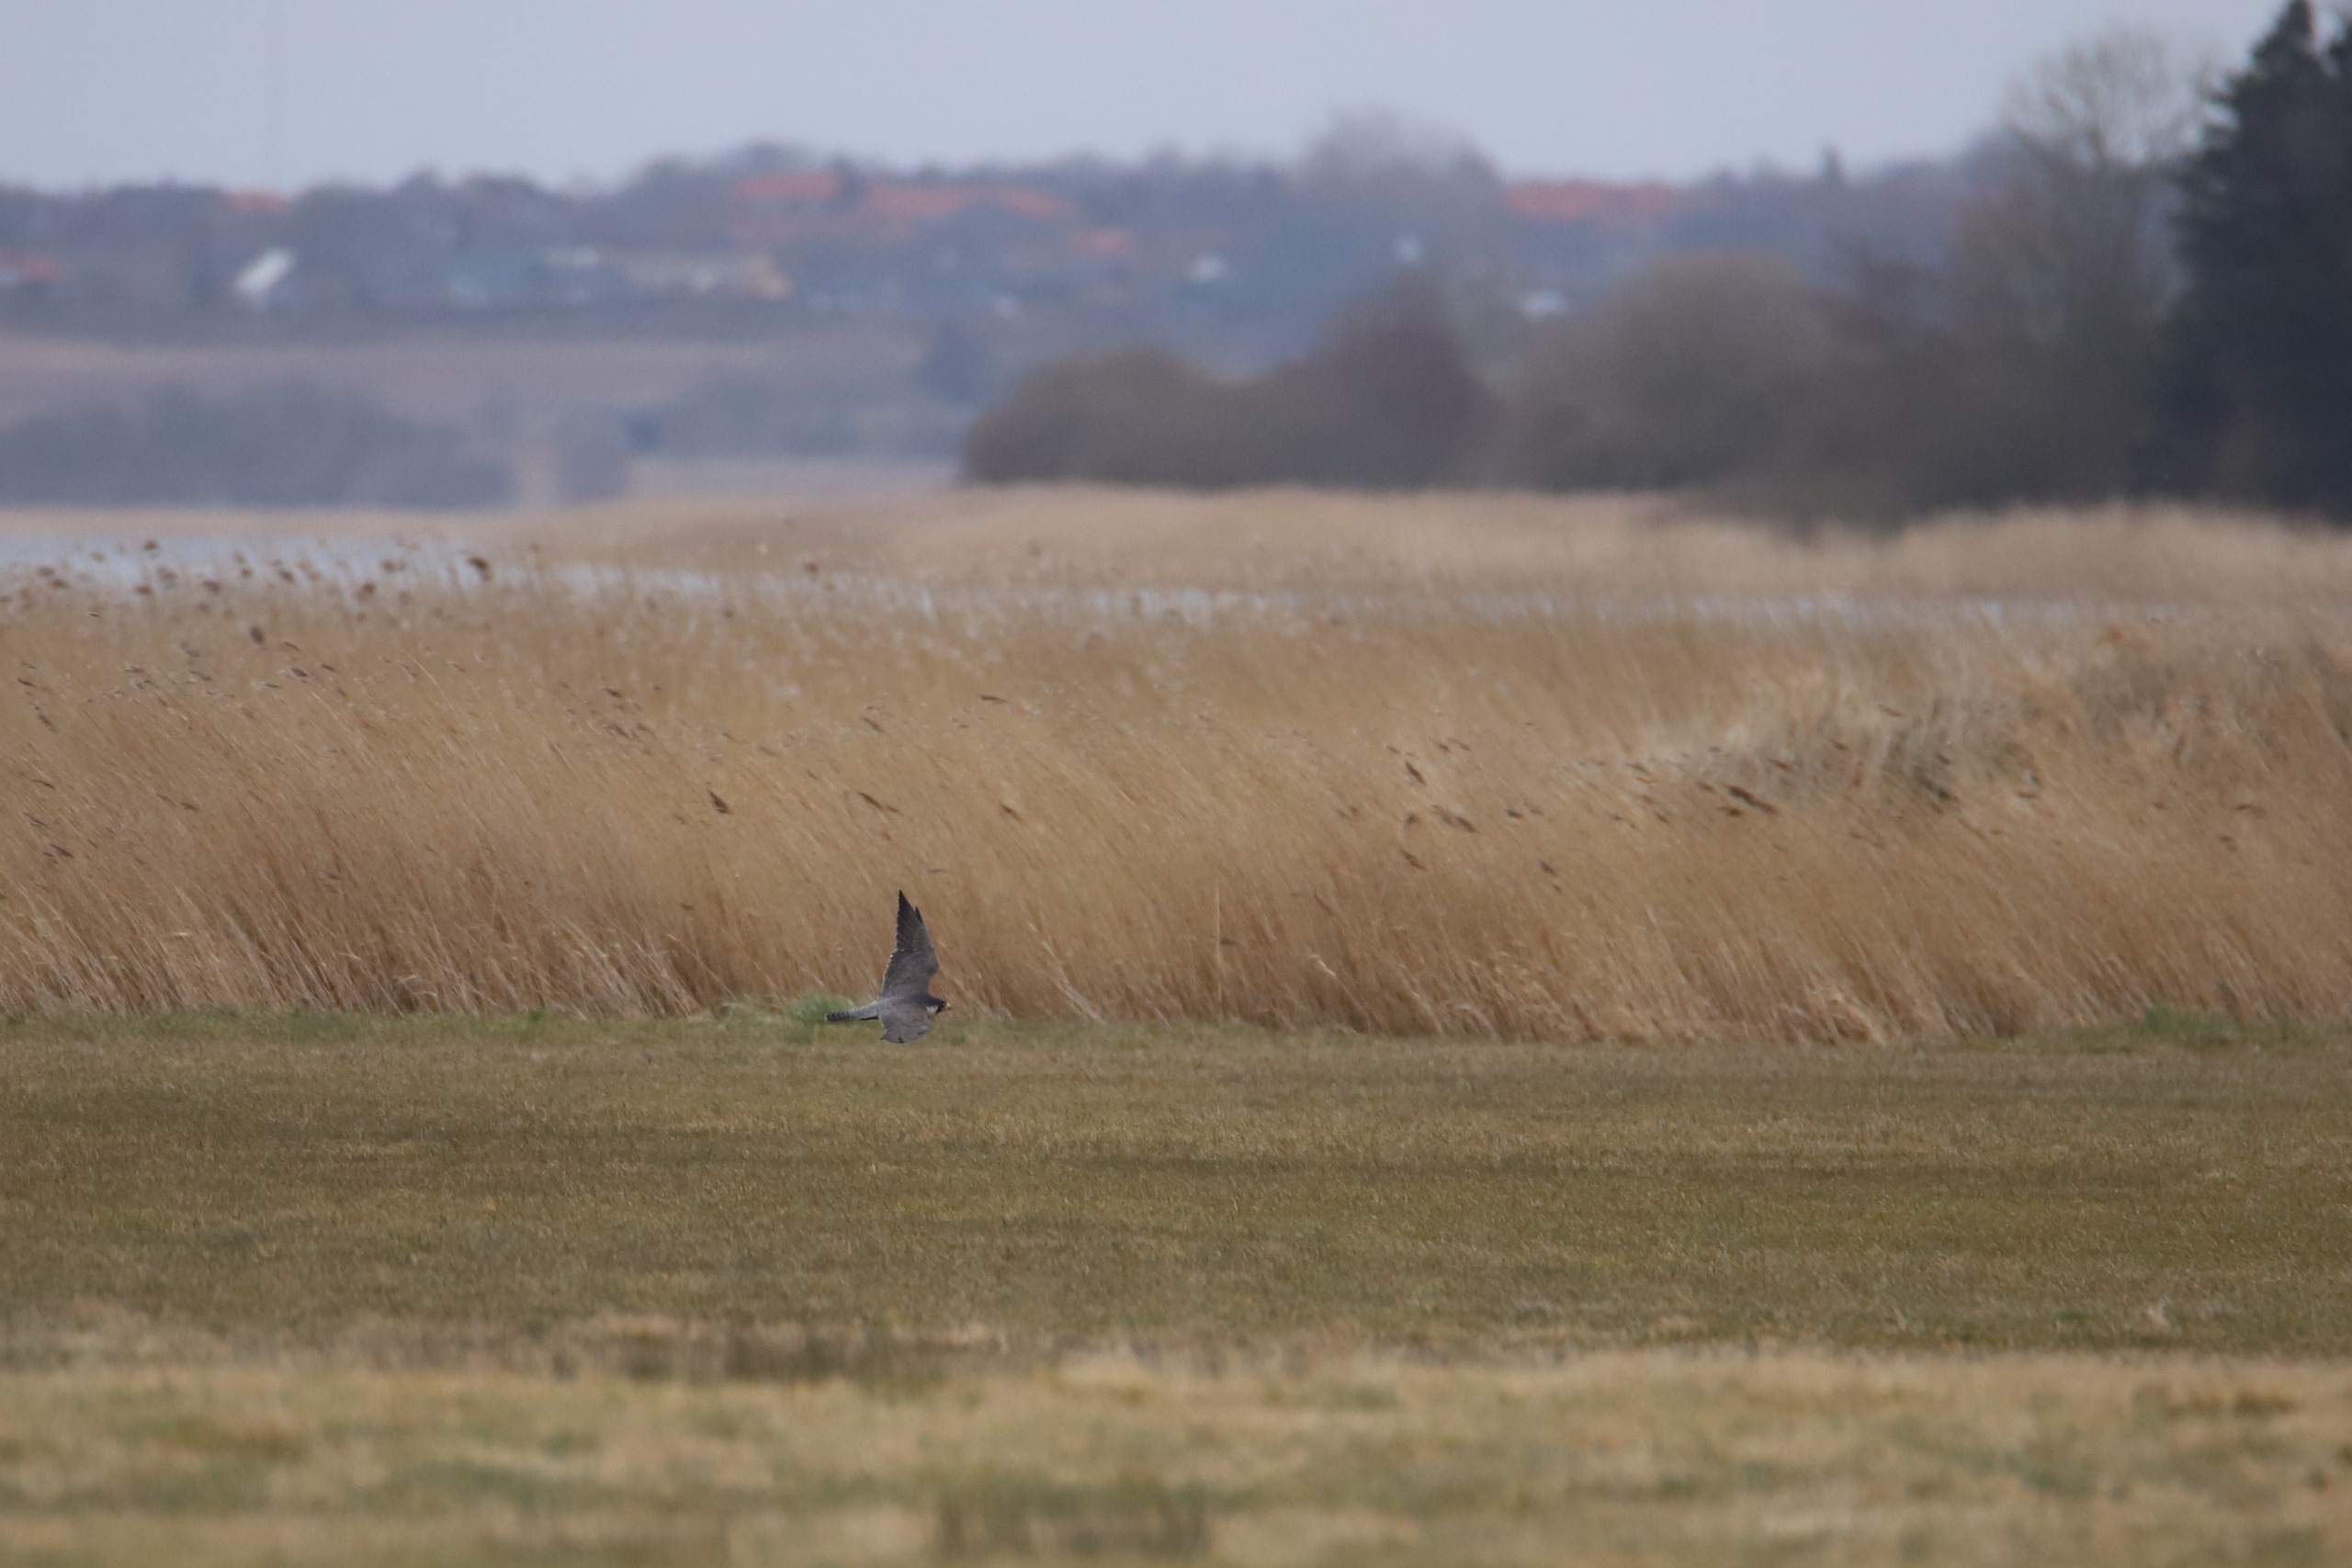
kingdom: Animalia
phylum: Chordata
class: Aves
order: Falconiformes
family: Falconidae
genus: Falco
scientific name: Falco peregrinus
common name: Vandrefalk
